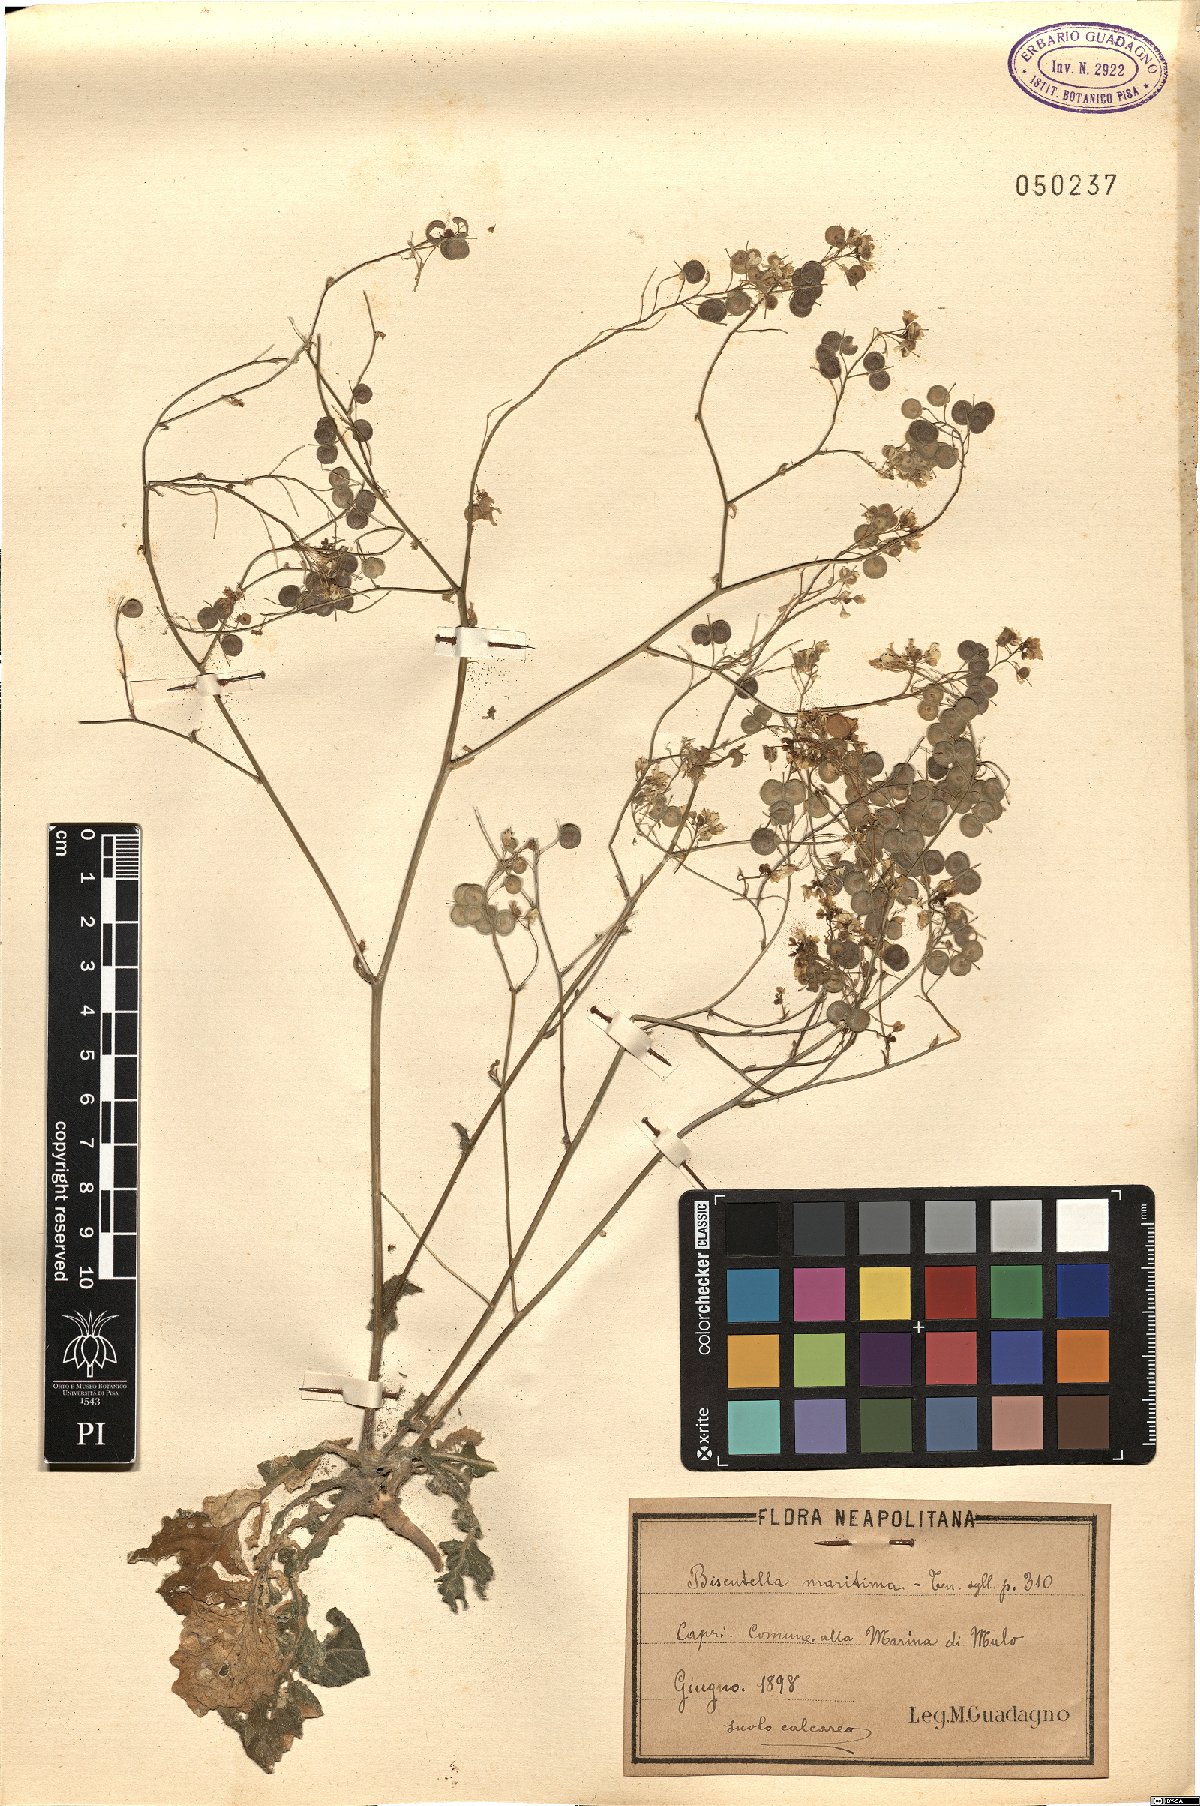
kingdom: Plantae
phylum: Tracheophyta
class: Magnoliopsida
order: Brassicales
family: Brassicaceae
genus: Biscutella
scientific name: Biscutella maritima
